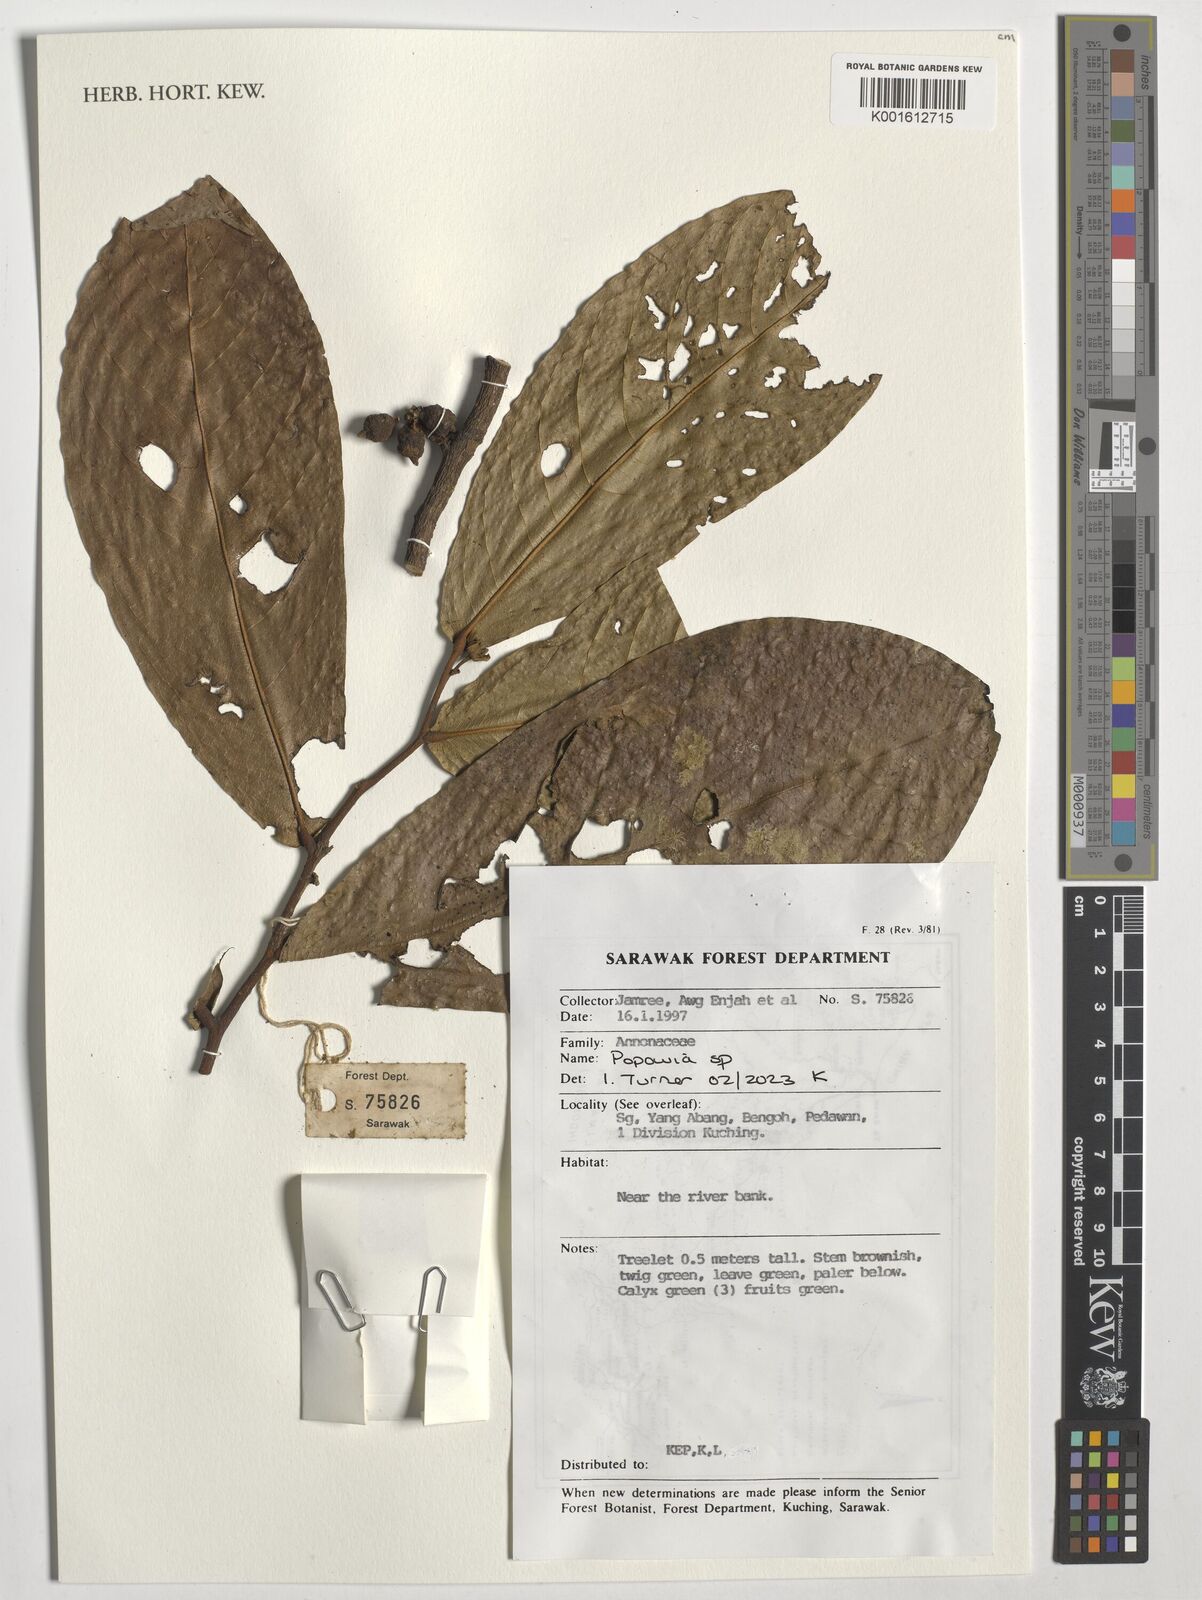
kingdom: Plantae
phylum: Tracheophyta
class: Magnoliopsida
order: Magnoliales
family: Annonaceae
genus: Popowia
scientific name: Popowia
